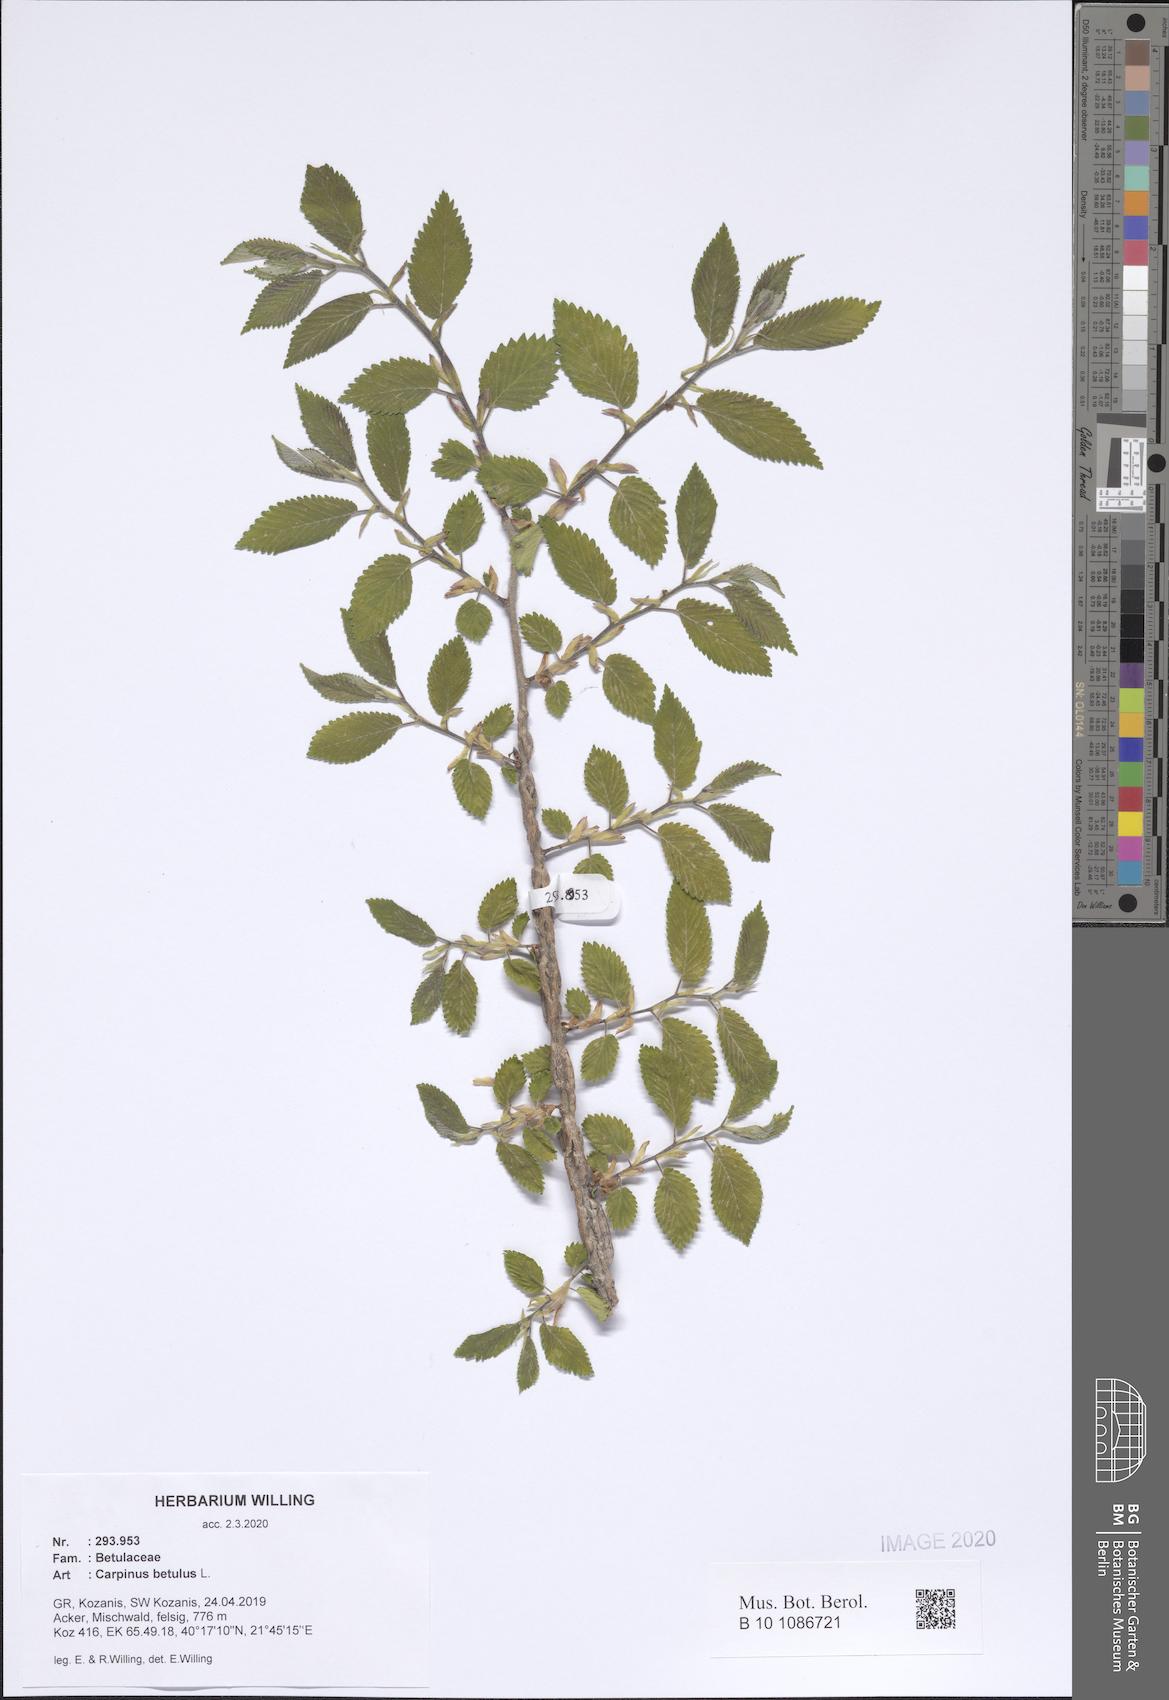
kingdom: Plantae
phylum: Tracheophyta
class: Magnoliopsida
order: Fagales
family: Betulaceae
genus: Carpinus
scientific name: Carpinus betulus
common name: Hornbeam
